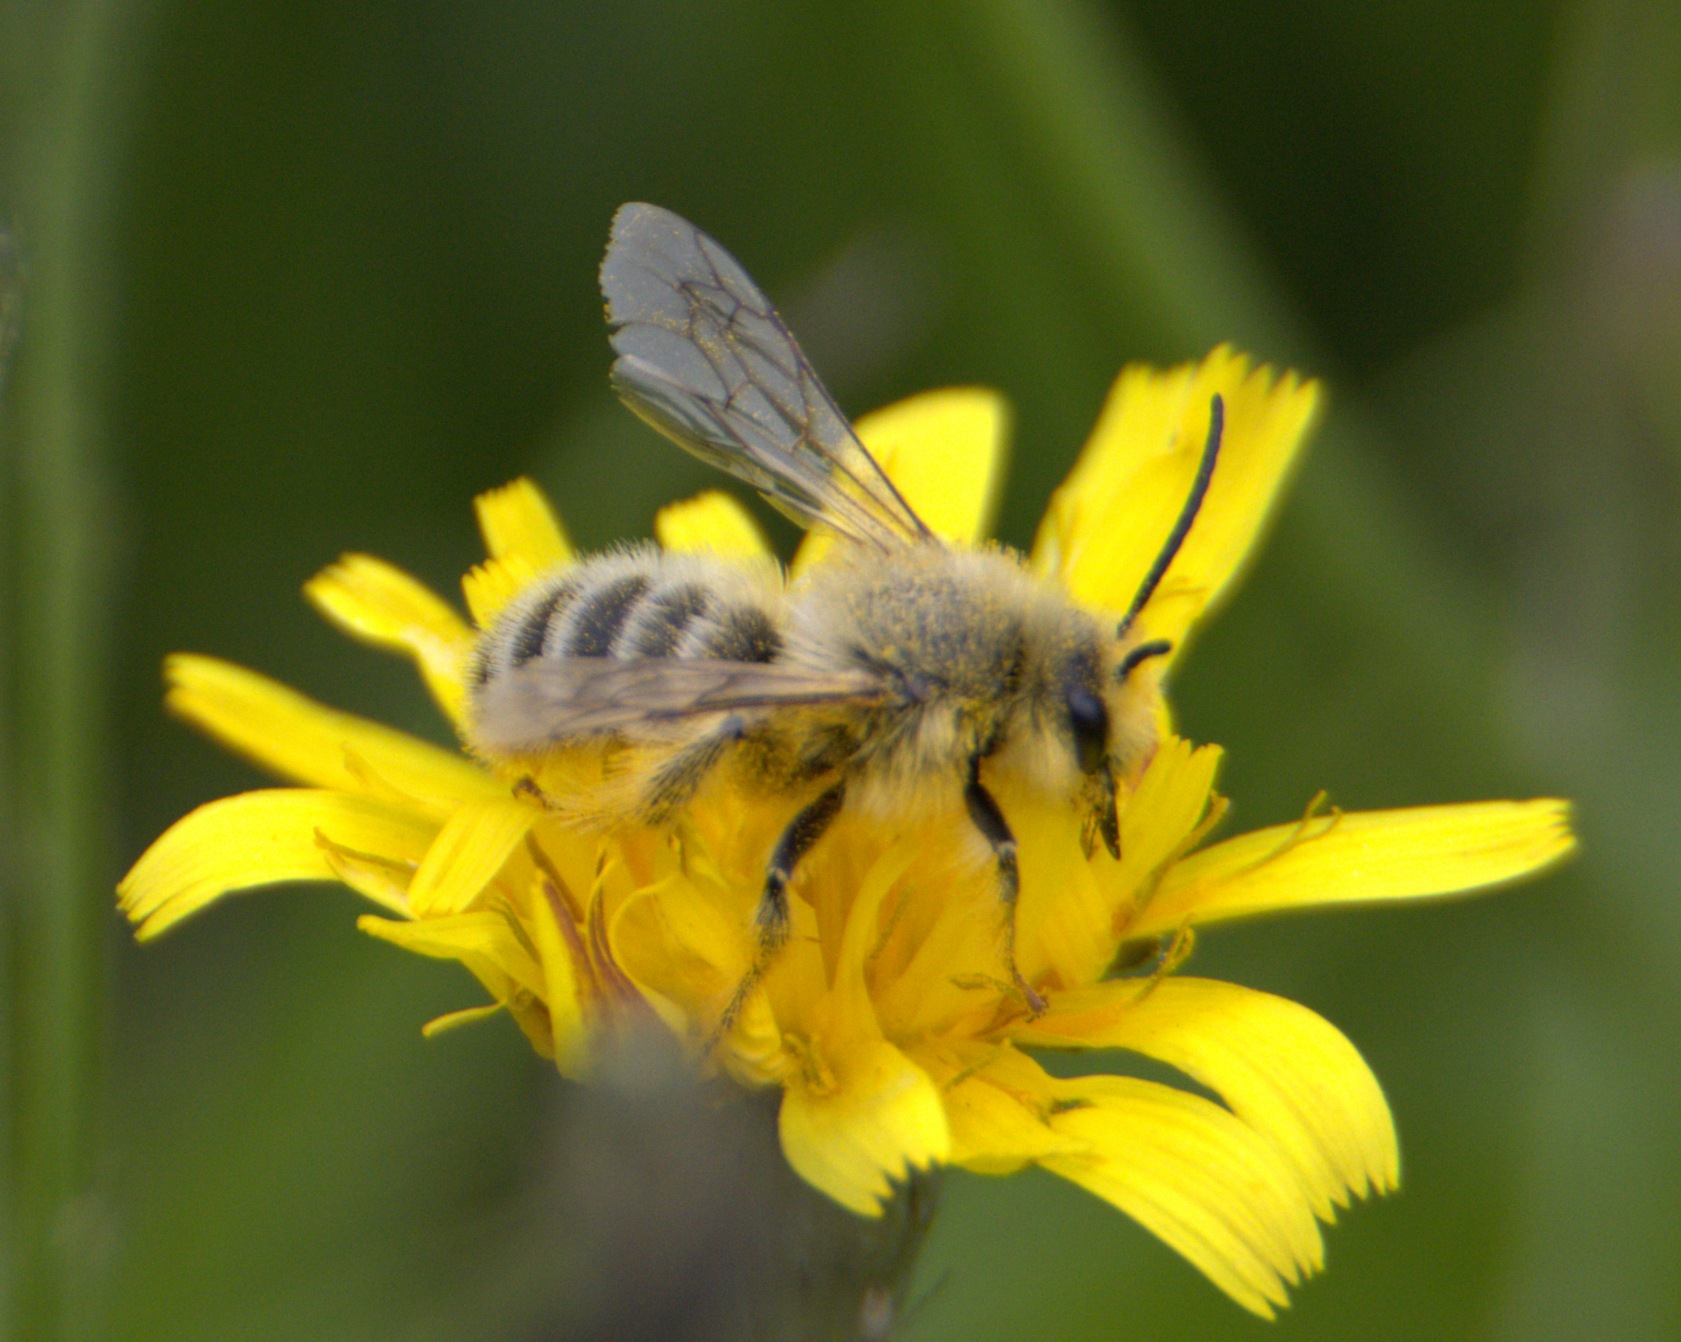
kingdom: Animalia
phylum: Arthropoda
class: Insecta
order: Hymenoptera
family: Melittidae
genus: Dasypoda
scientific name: Dasypoda hirtipes
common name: Pragtbuksebi
